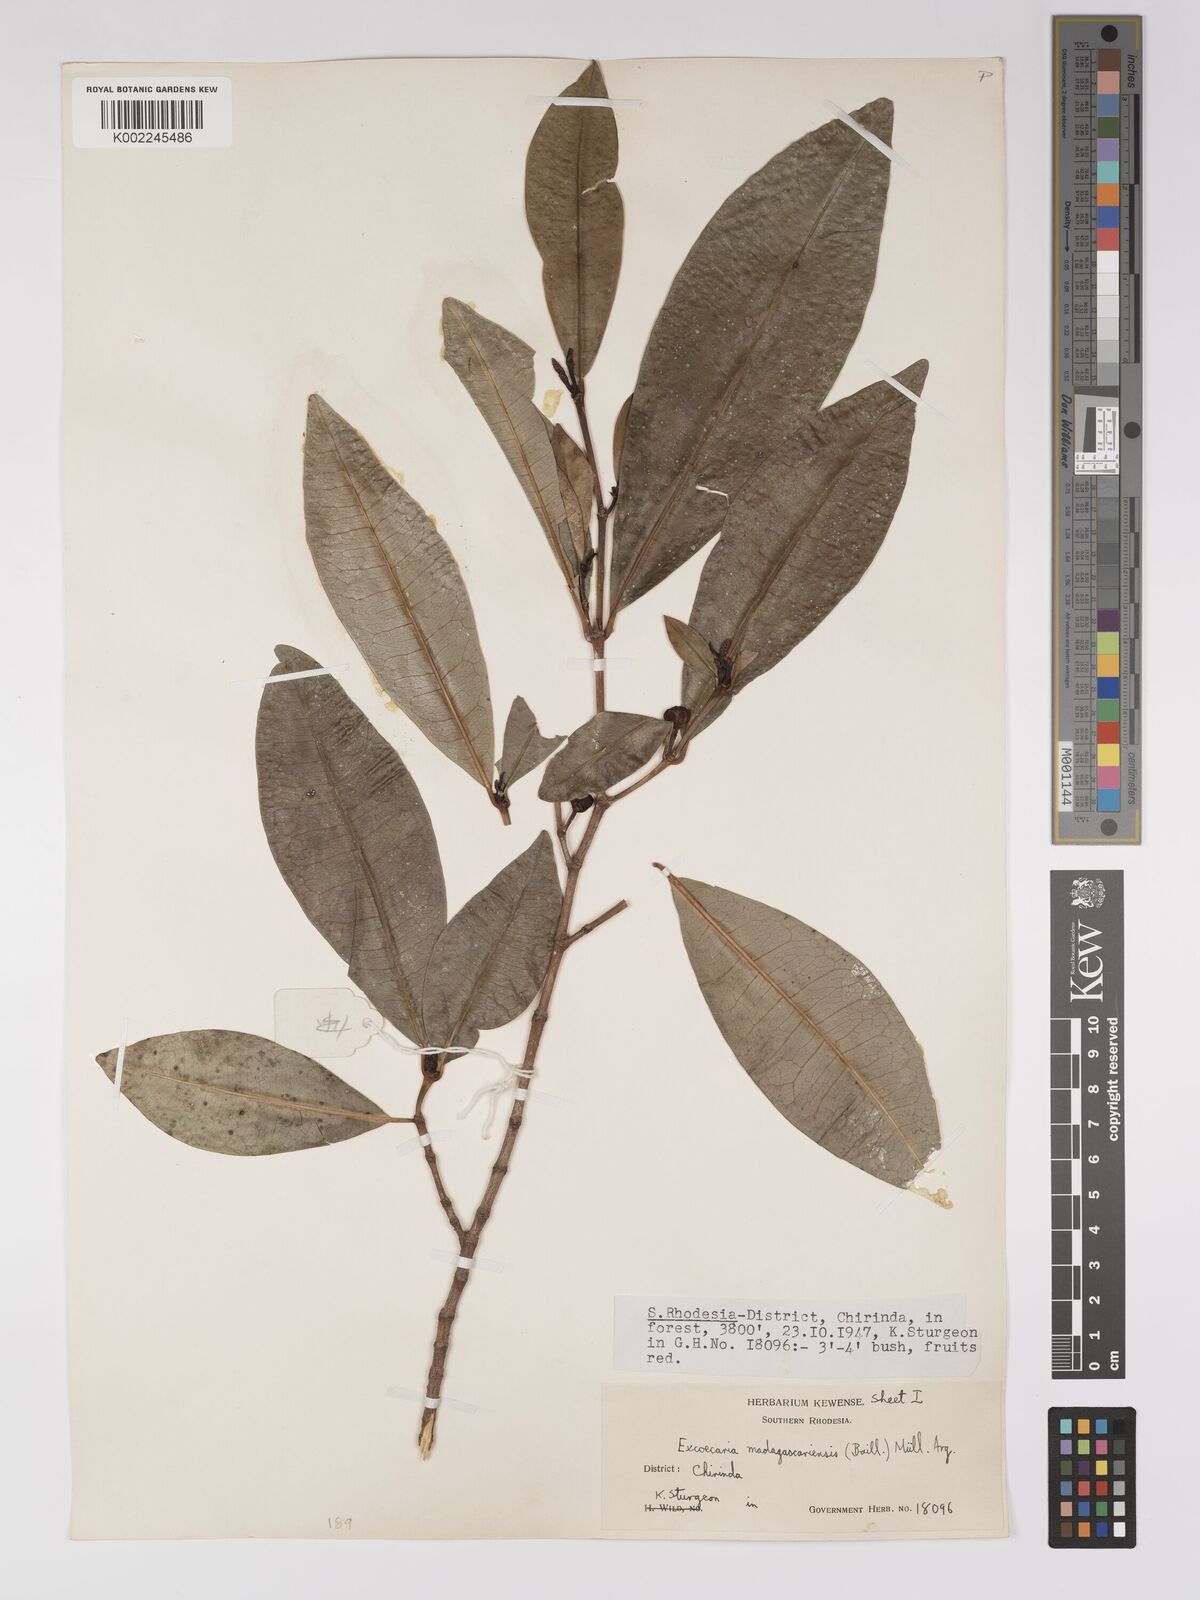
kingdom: Plantae
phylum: Tracheophyta
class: Magnoliopsida
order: Malpighiales
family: Euphorbiaceae
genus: Excoecaria
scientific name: Excoecaria madagascariensis
